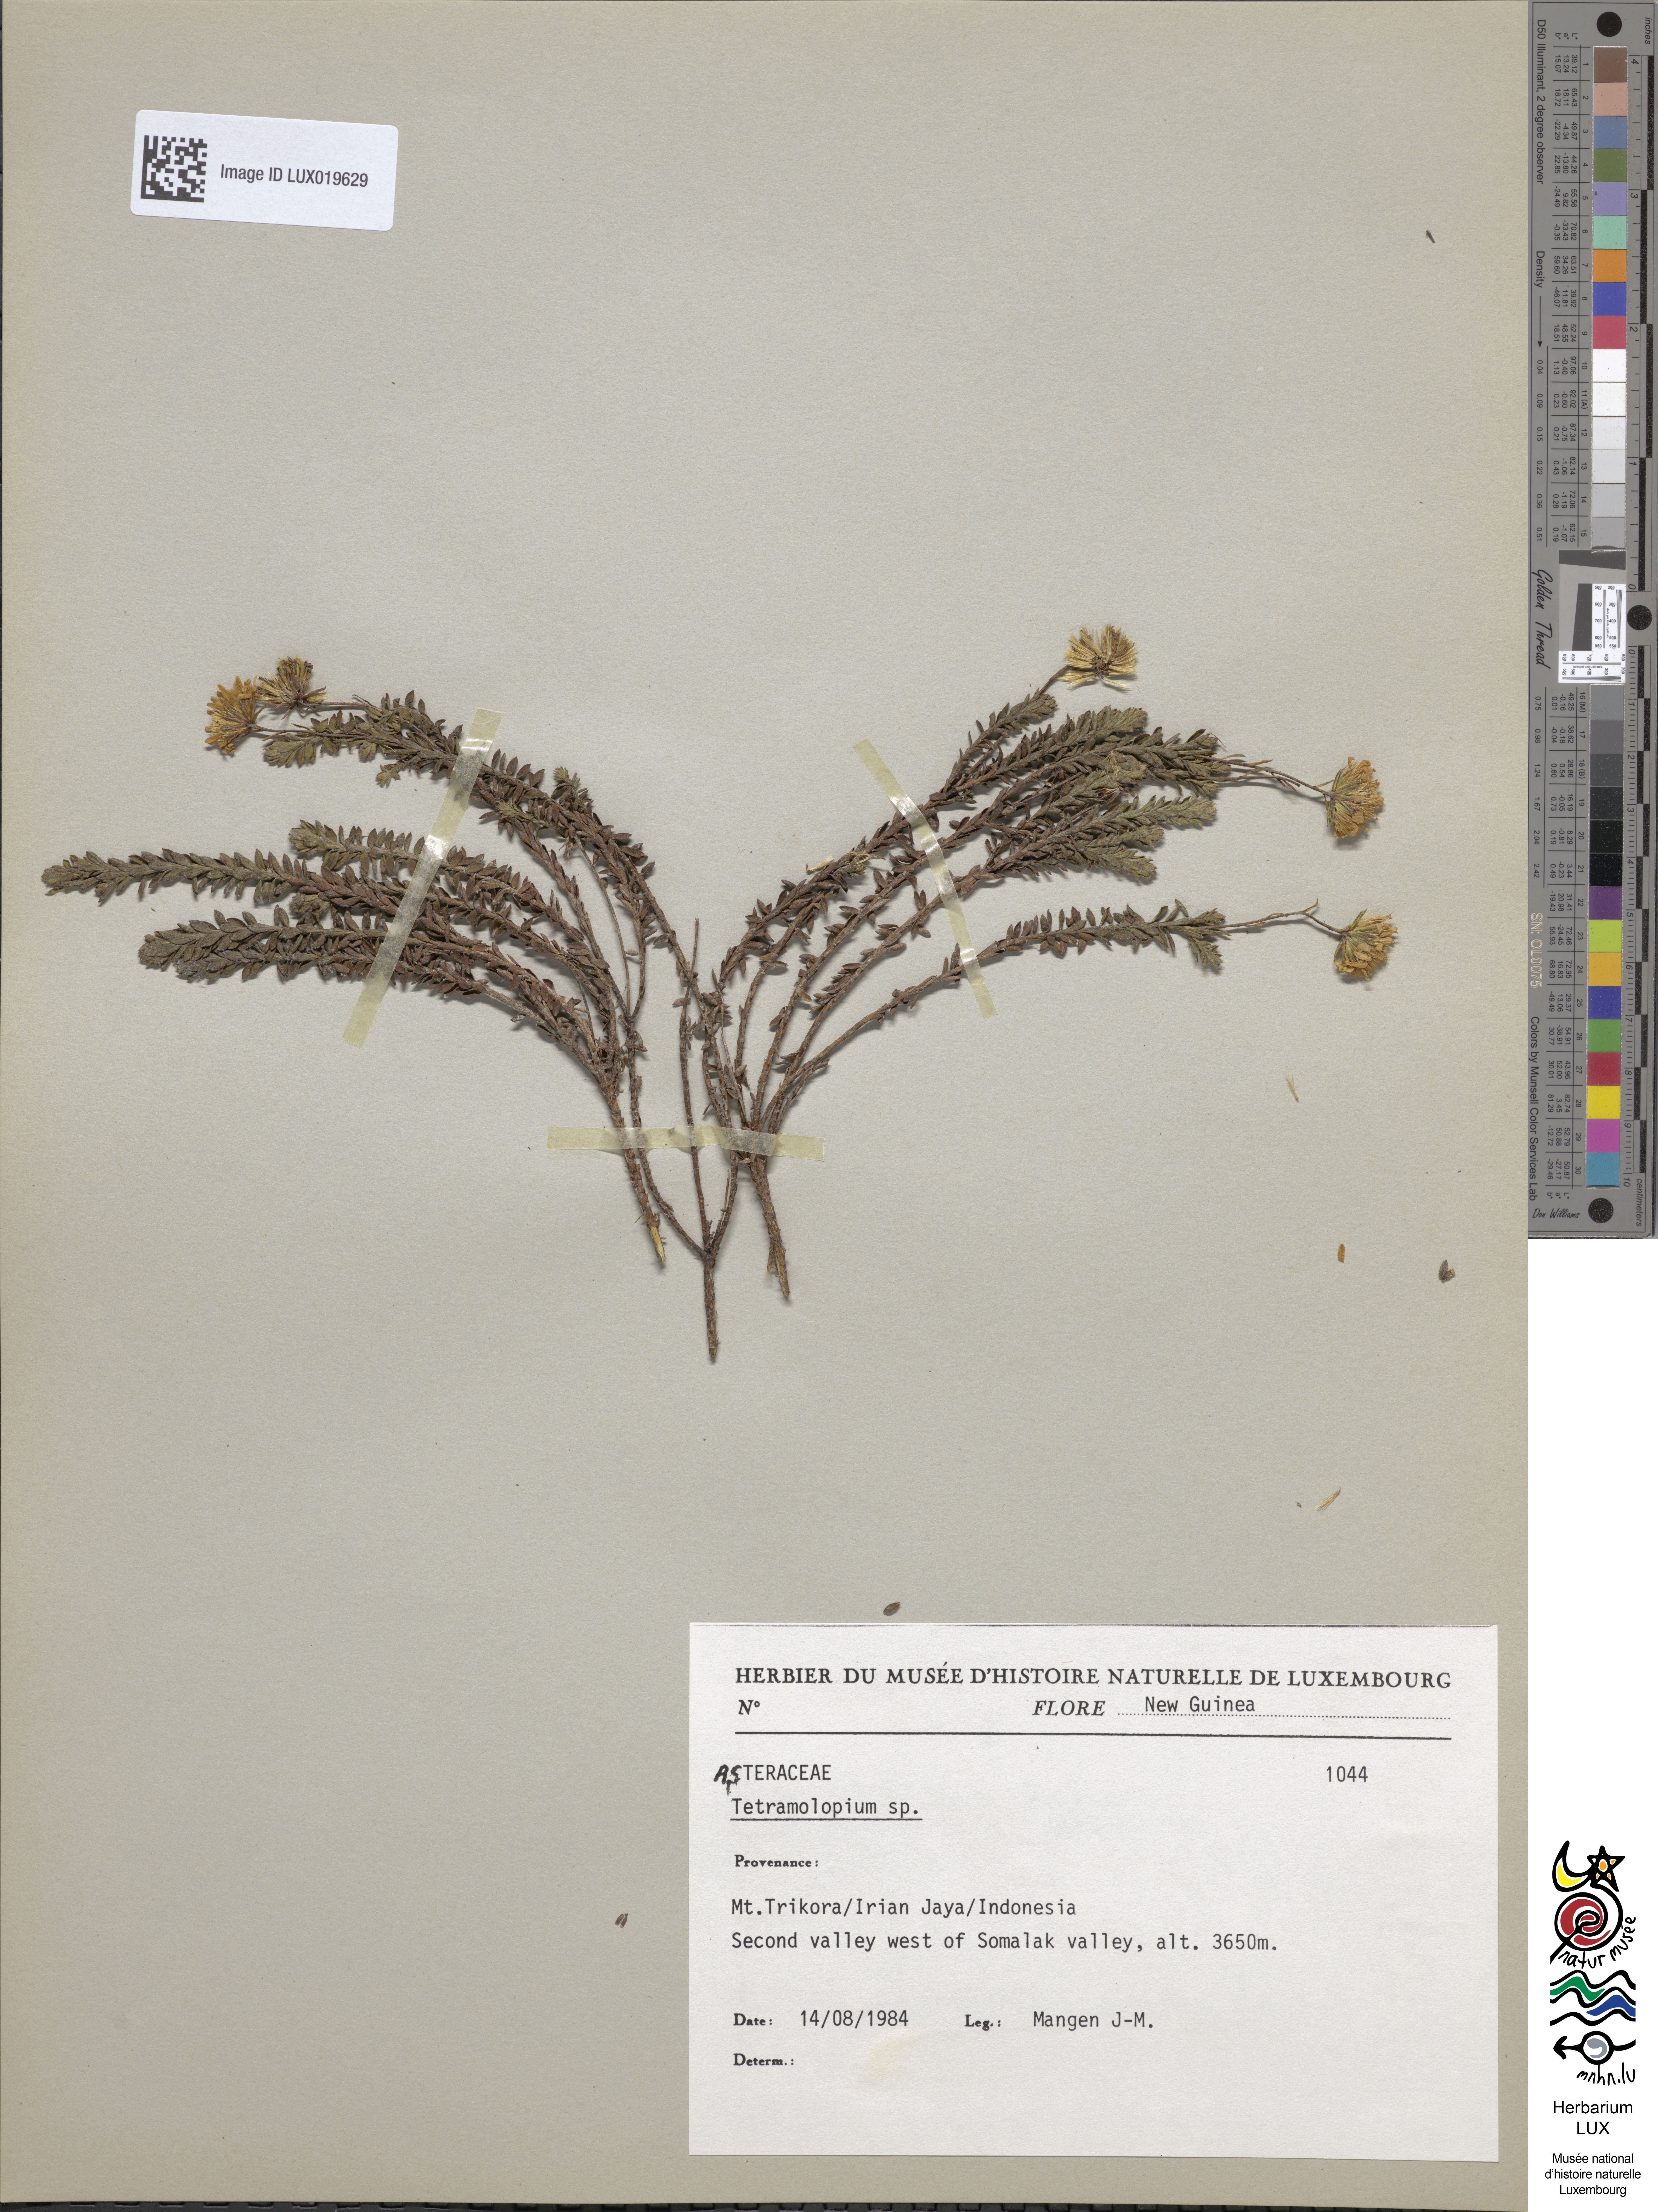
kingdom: Plantae
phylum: Tracheophyta
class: Magnoliopsida
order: Asterales
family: Asteraceae
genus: Tetramolopium
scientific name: Tetramolopium
